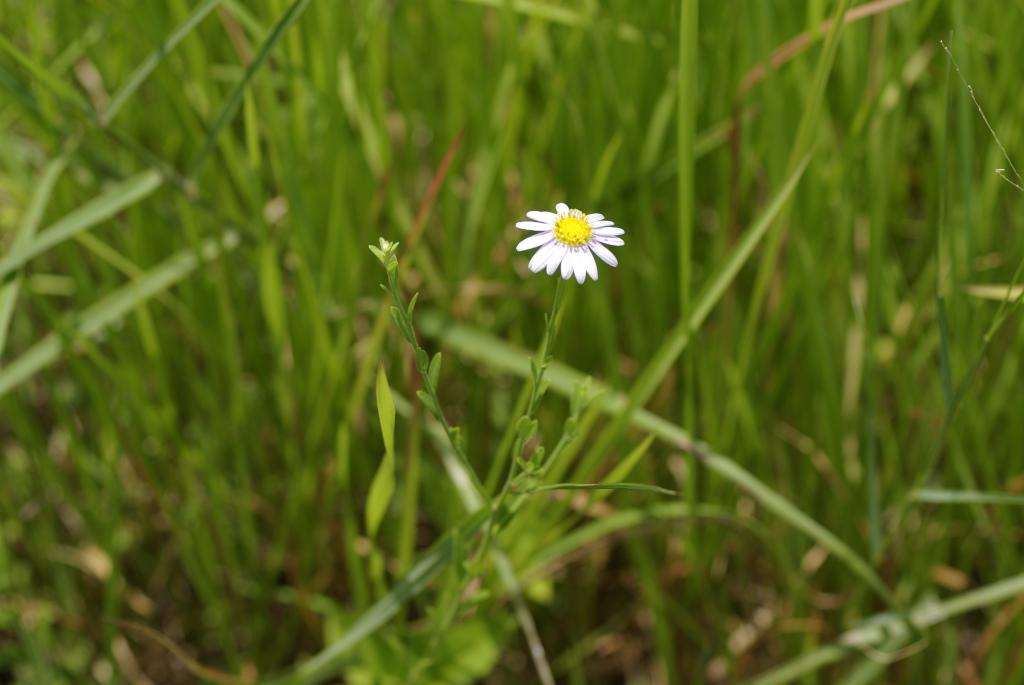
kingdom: Plantae
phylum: Tracheophyta
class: Magnoliopsida
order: Asterales
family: Asteraceae
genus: Aster
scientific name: Aster shimadae
